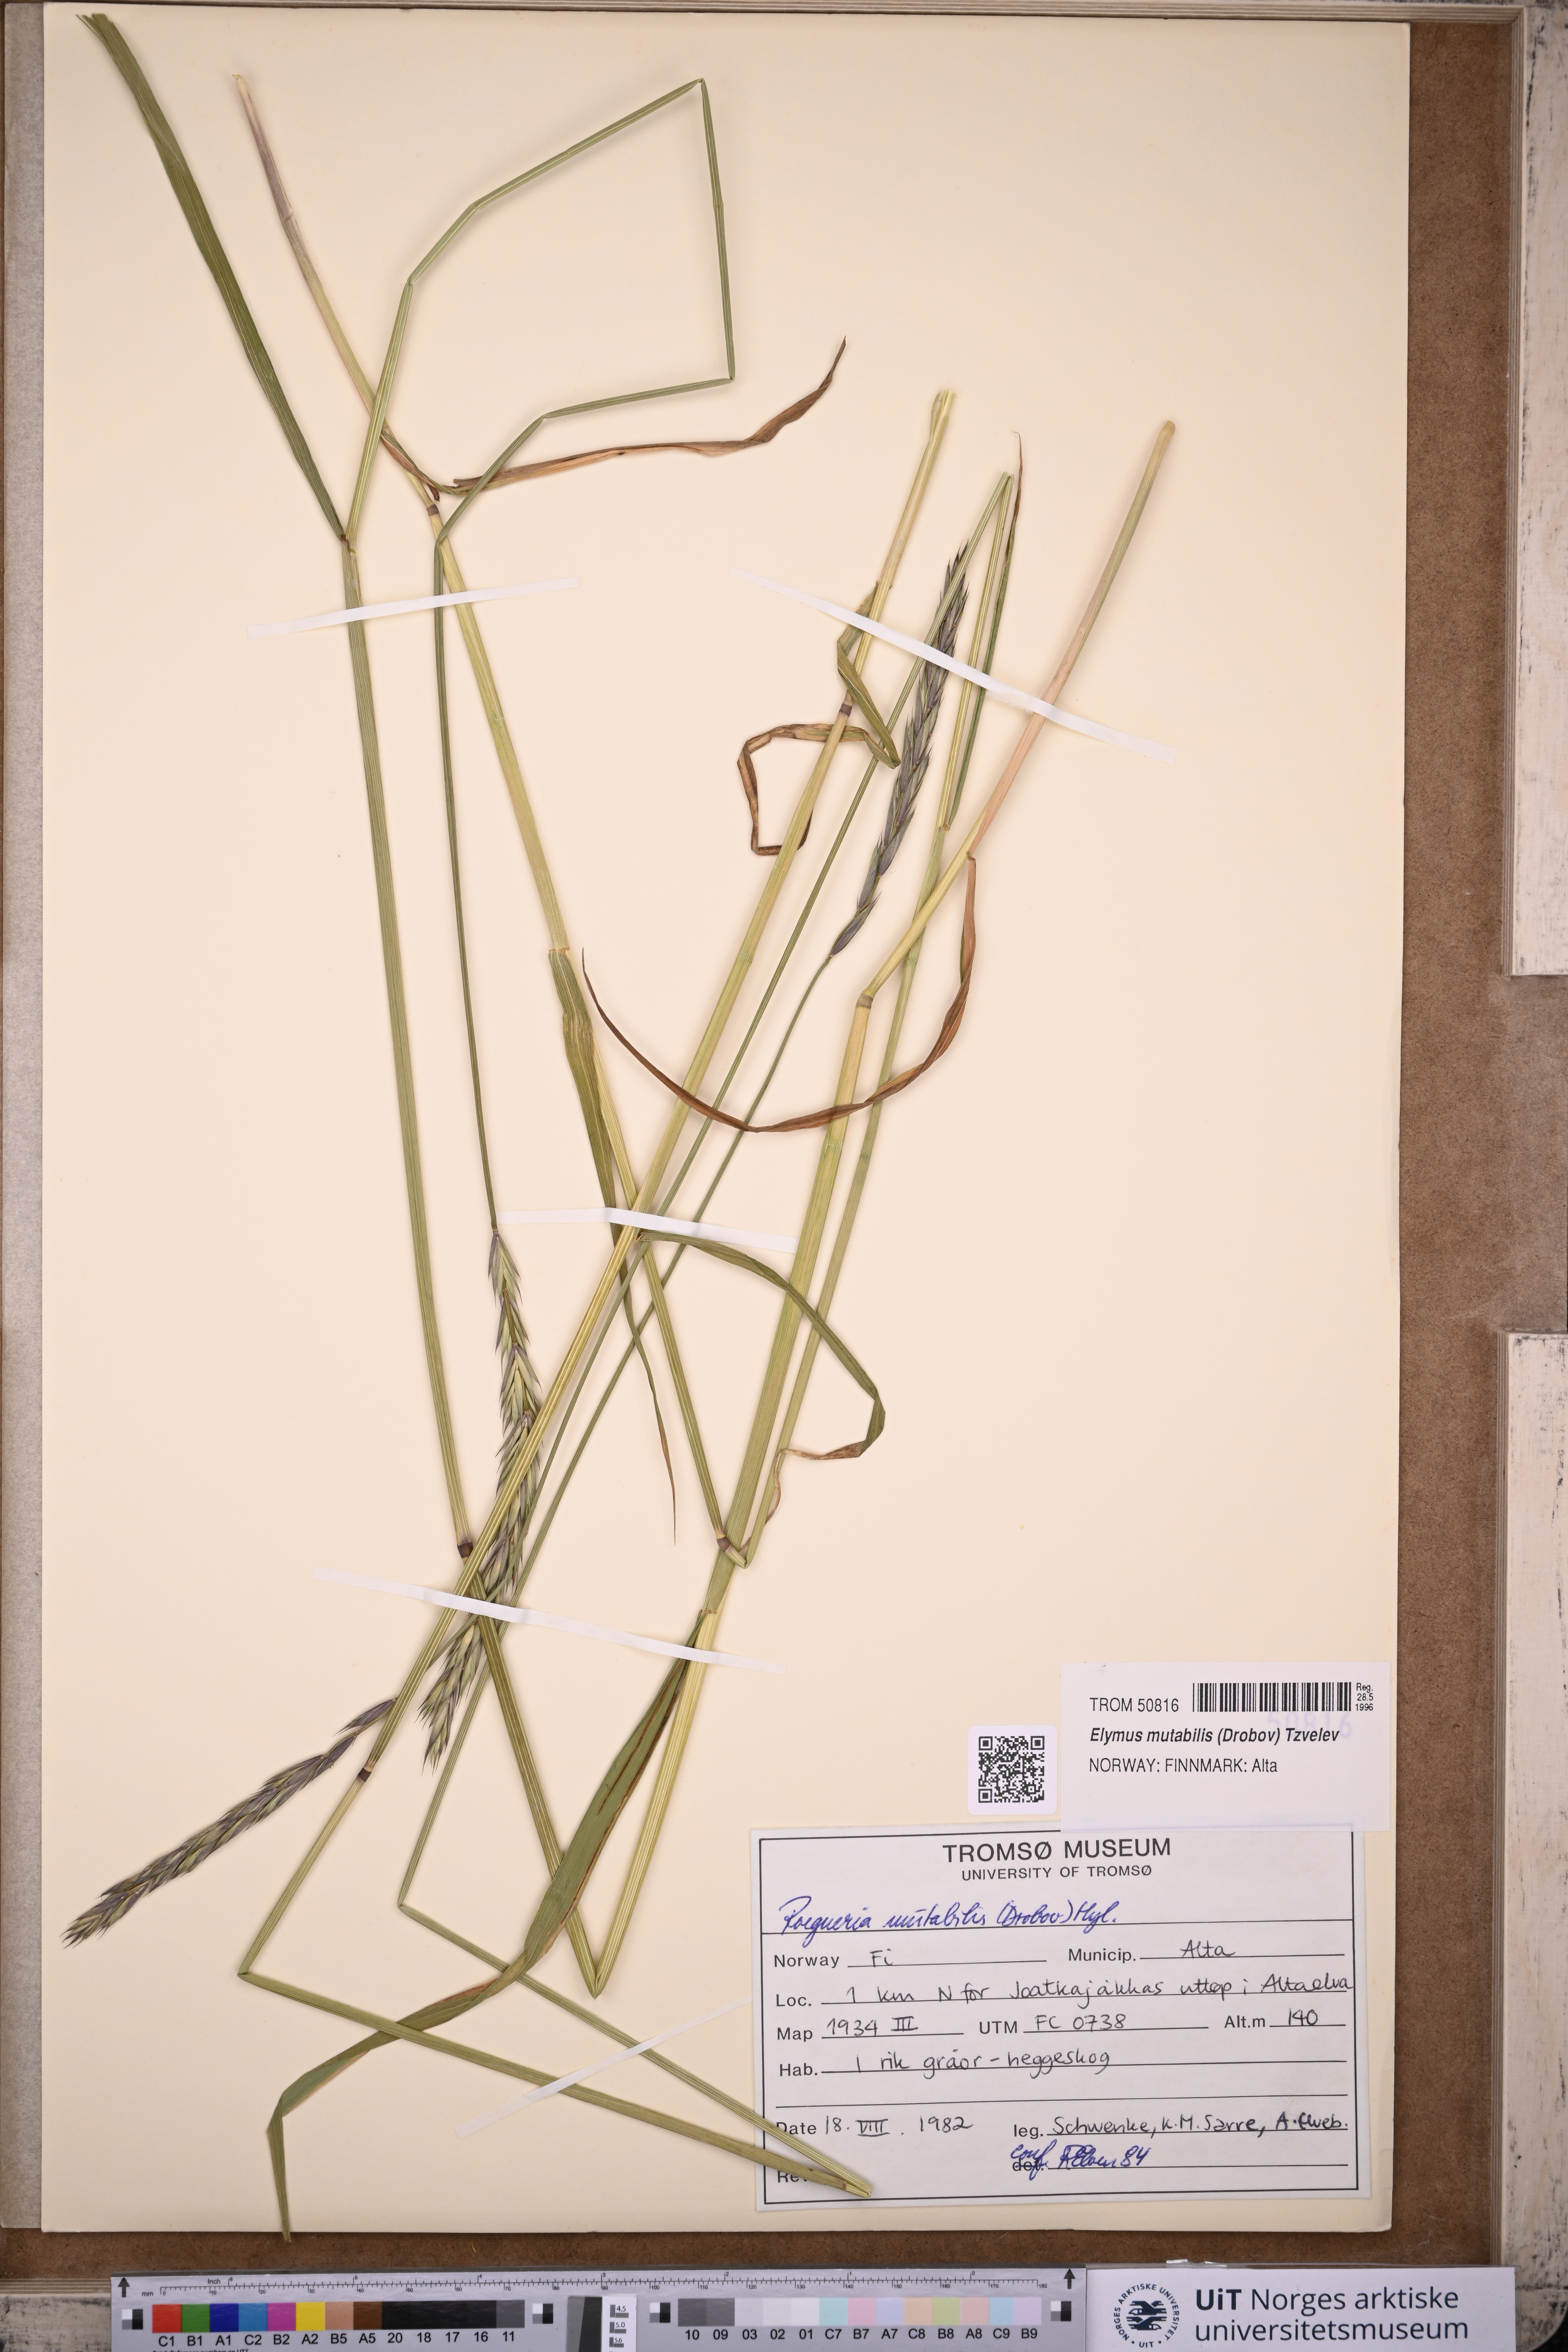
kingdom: Plantae
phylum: Tracheophyta
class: Liliopsida
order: Poales
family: Poaceae
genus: Elymus
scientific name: Elymus mutabilis
